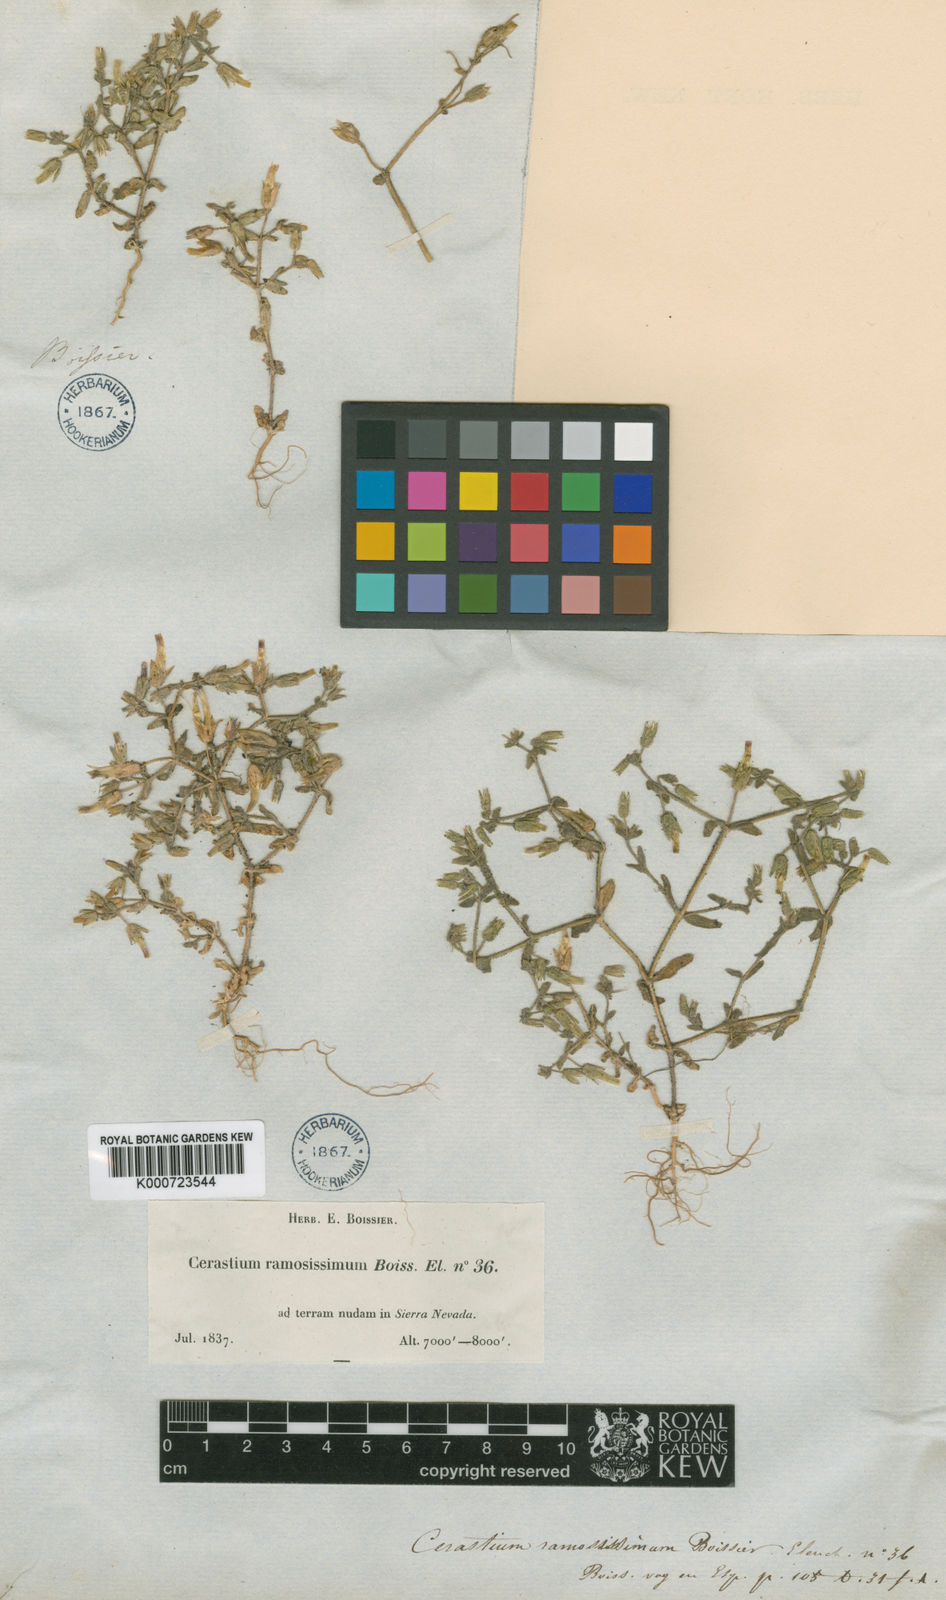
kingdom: Plantae
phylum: Tracheophyta
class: Magnoliopsida
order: Caryophyllales
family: Caryophyllaceae
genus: Cerastium
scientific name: Cerastium gracile
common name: Slender chickweed
